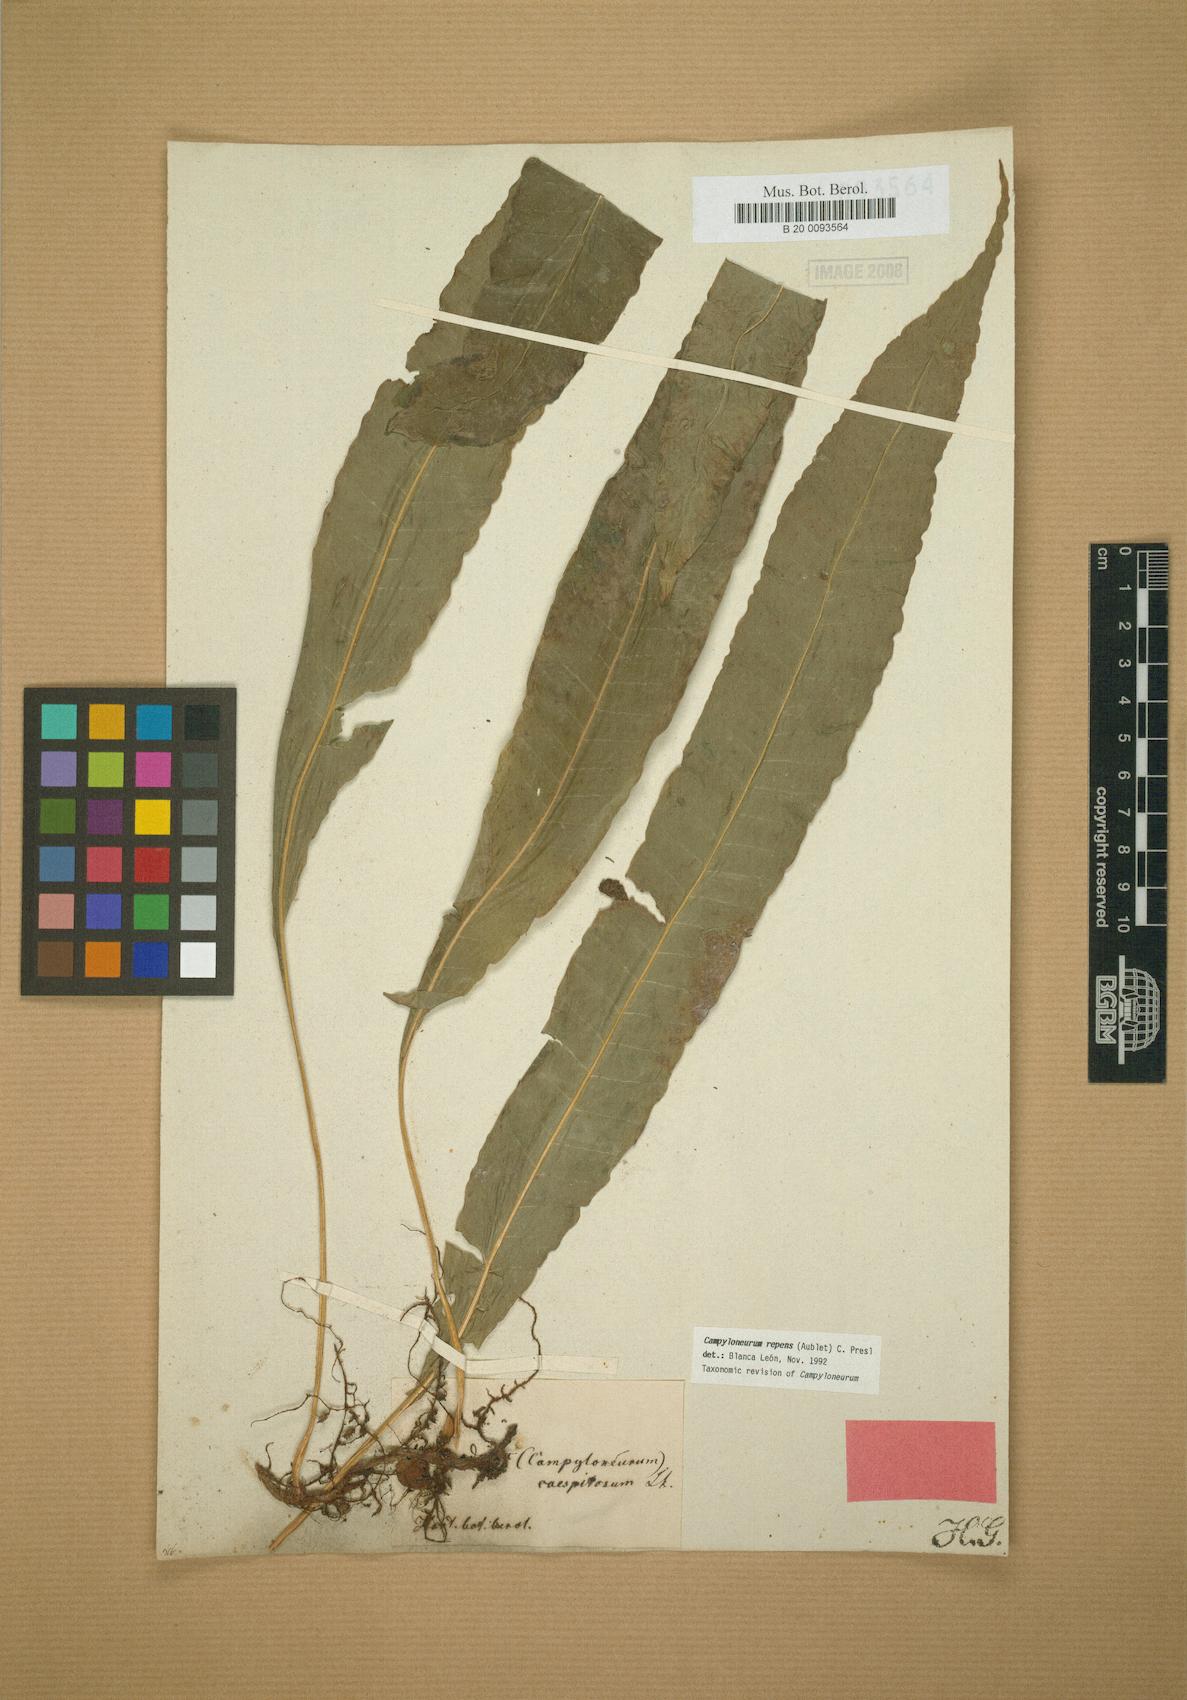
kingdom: Plantae
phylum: Tracheophyta
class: Polypodiopsida
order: Polypodiales
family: Polypodiaceae
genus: Campyloneurum
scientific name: Campyloneurum repens
